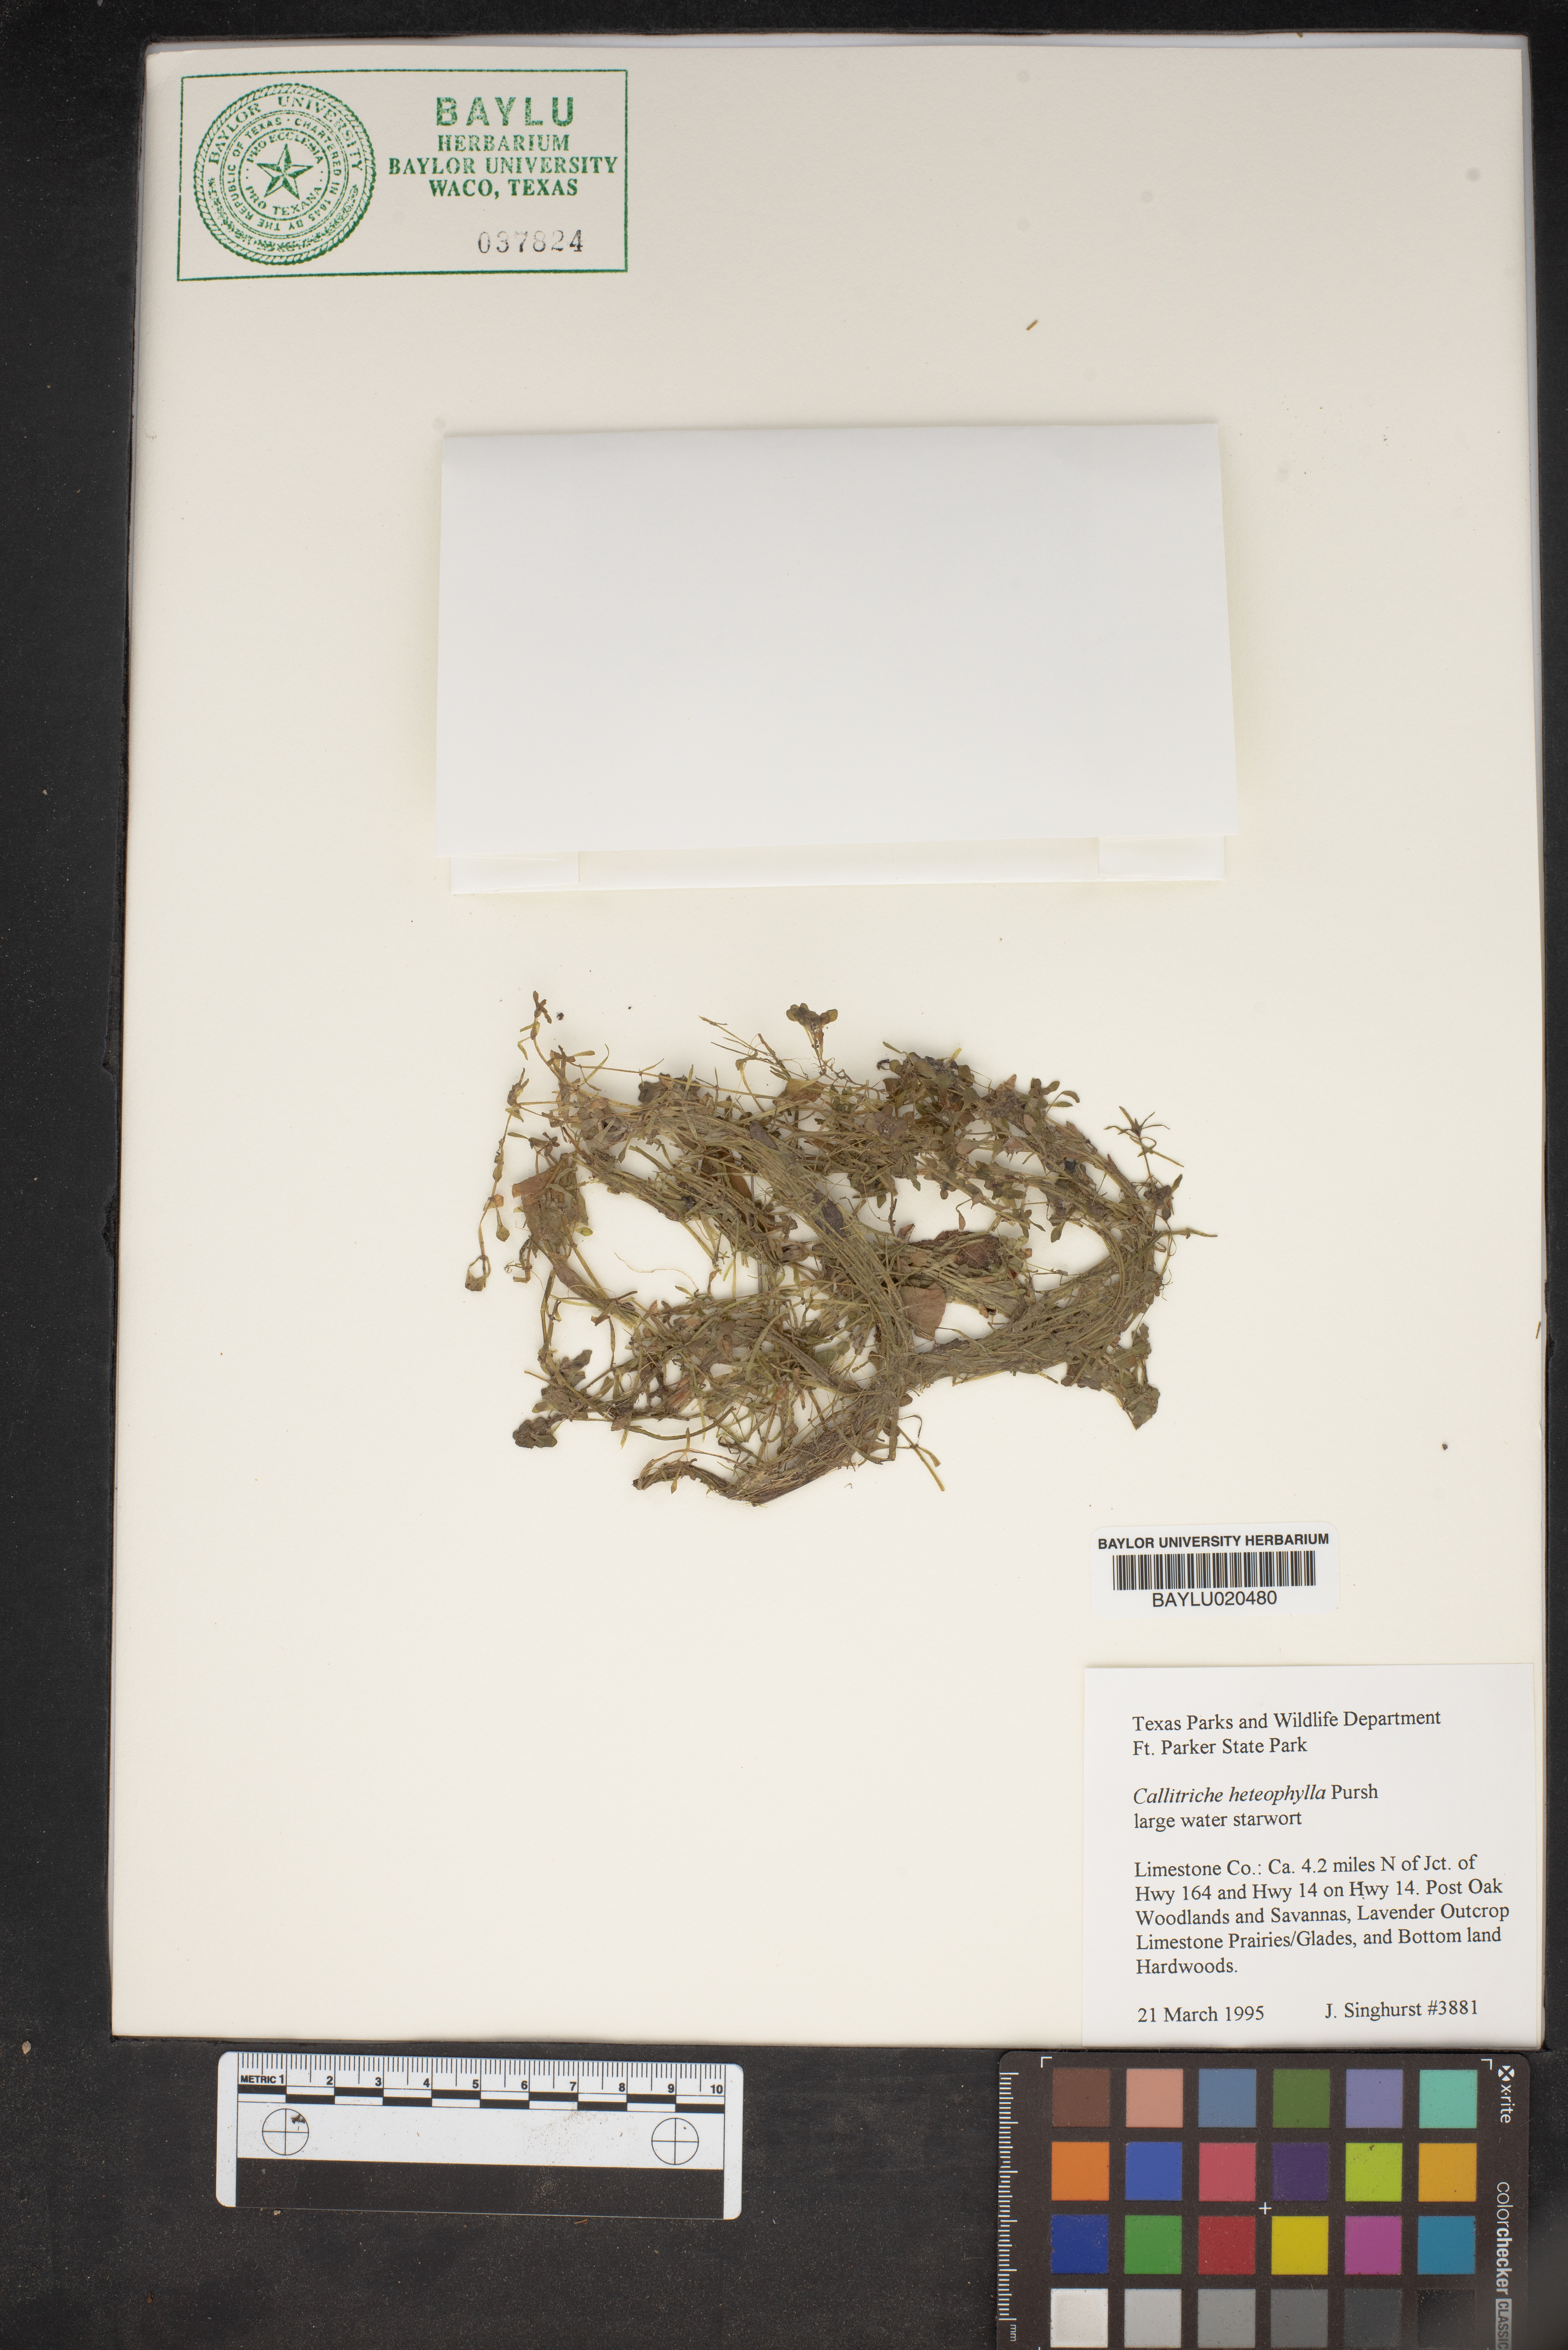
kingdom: Plantae
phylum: Tracheophyta
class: Magnoliopsida
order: Lamiales
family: Plantaginaceae
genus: Callitriche
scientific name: Callitriche heterophylla
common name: Two-headed water-starwort
